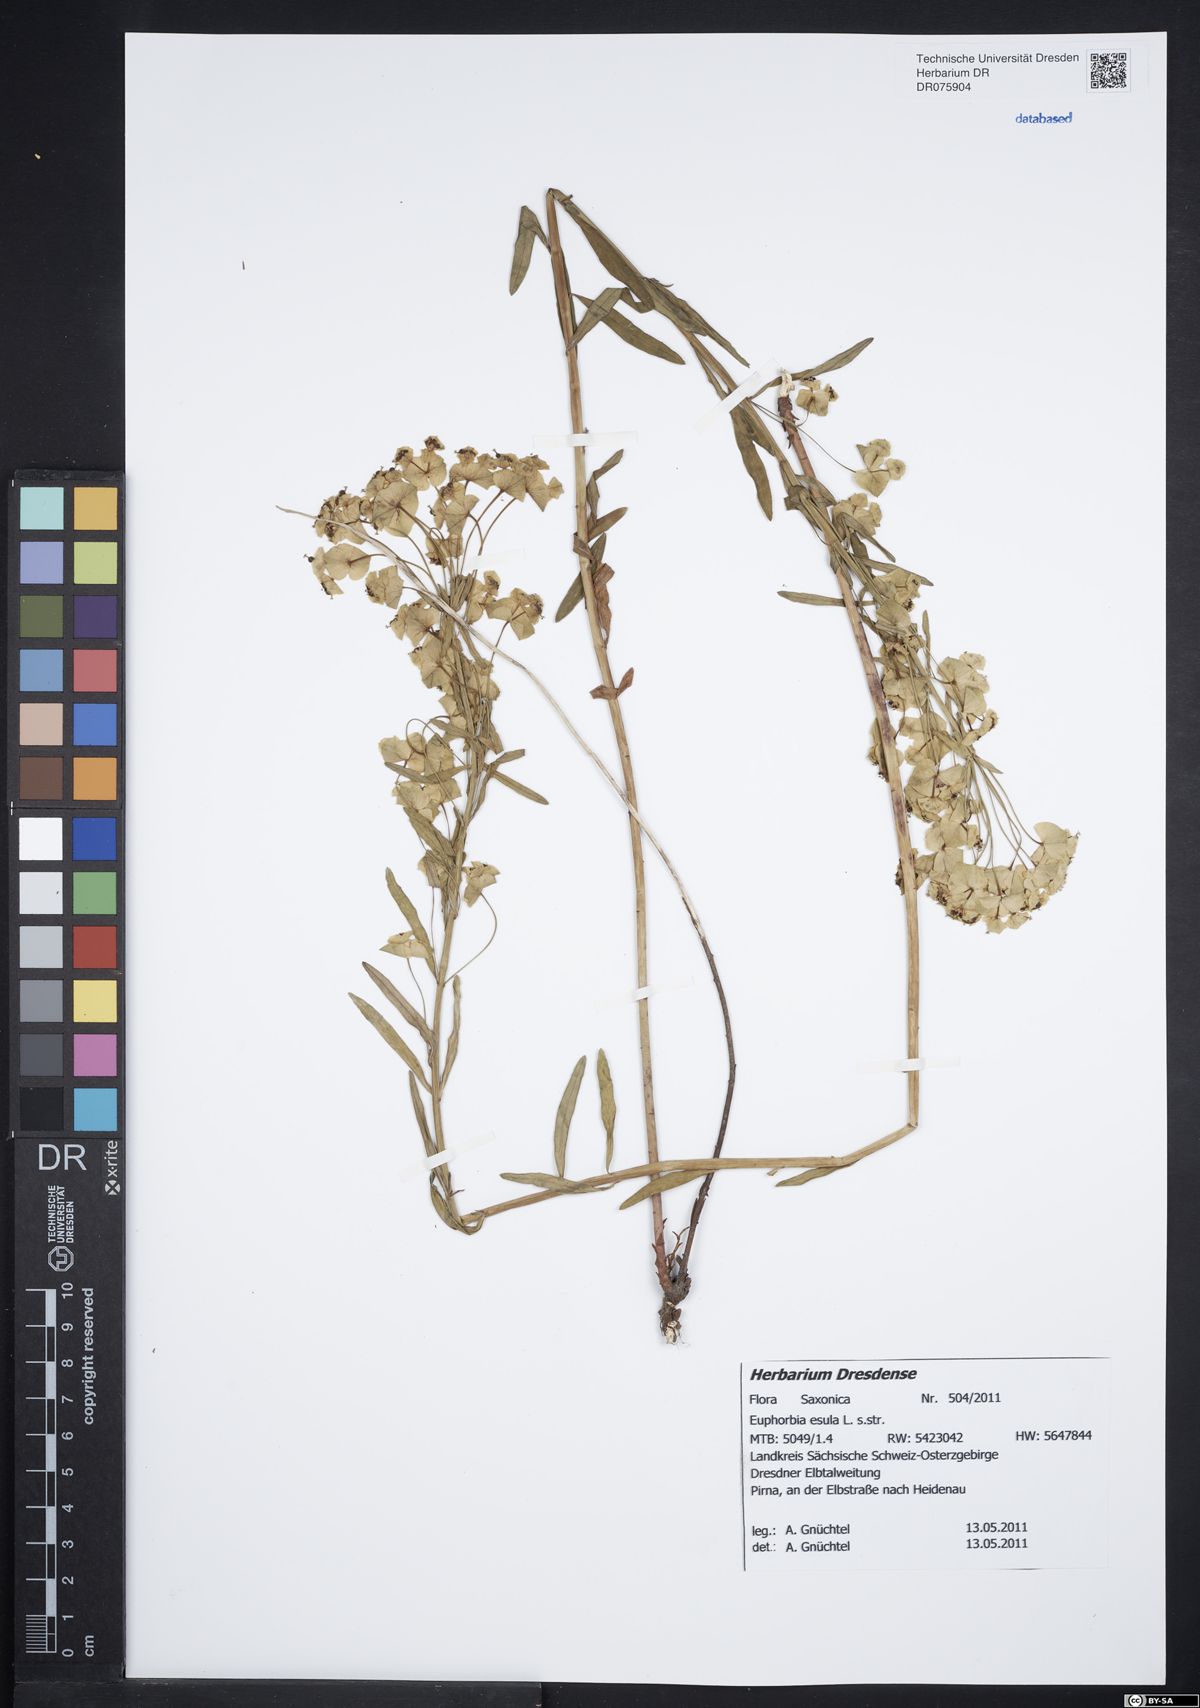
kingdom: Plantae
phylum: Tracheophyta
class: Magnoliopsida
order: Malpighiales
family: Euphorbiaceae
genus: Euphorbia
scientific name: Euphorbia esula
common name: Leafy spurge
